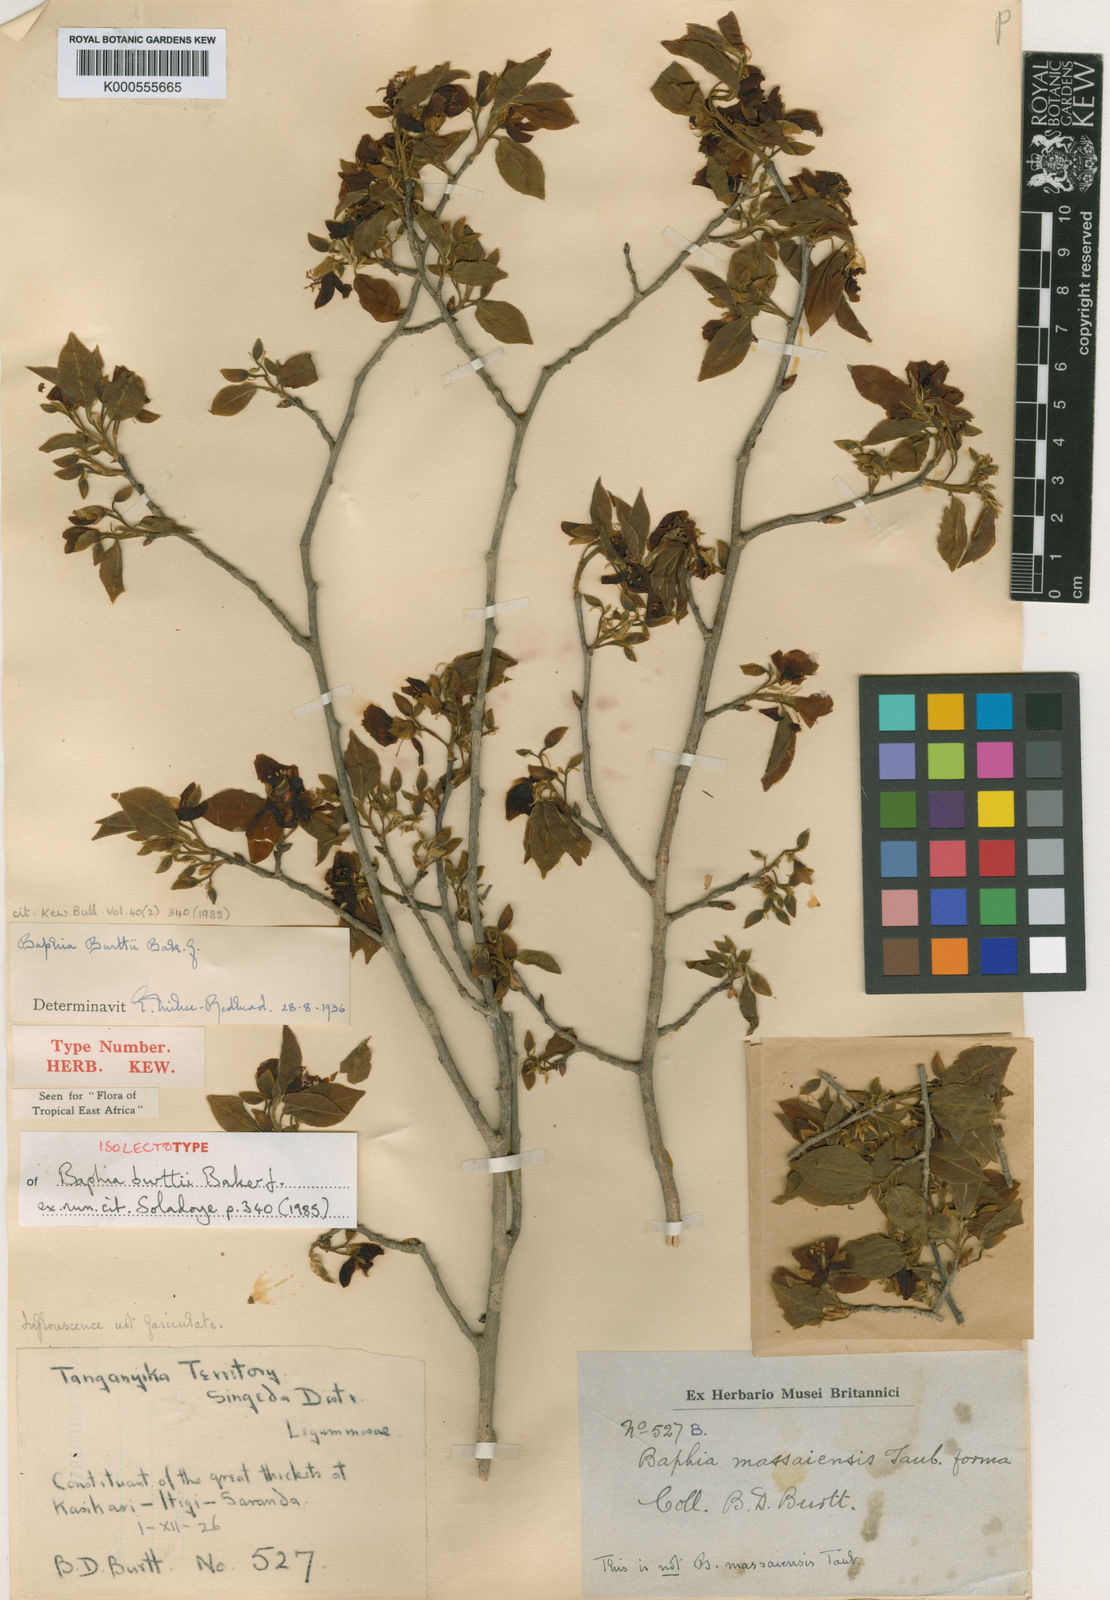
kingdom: Plantae
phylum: Tracheophyta
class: Magnoliopsida
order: Fabales
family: Fabaceae
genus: Baphia
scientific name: Baphia burttii
